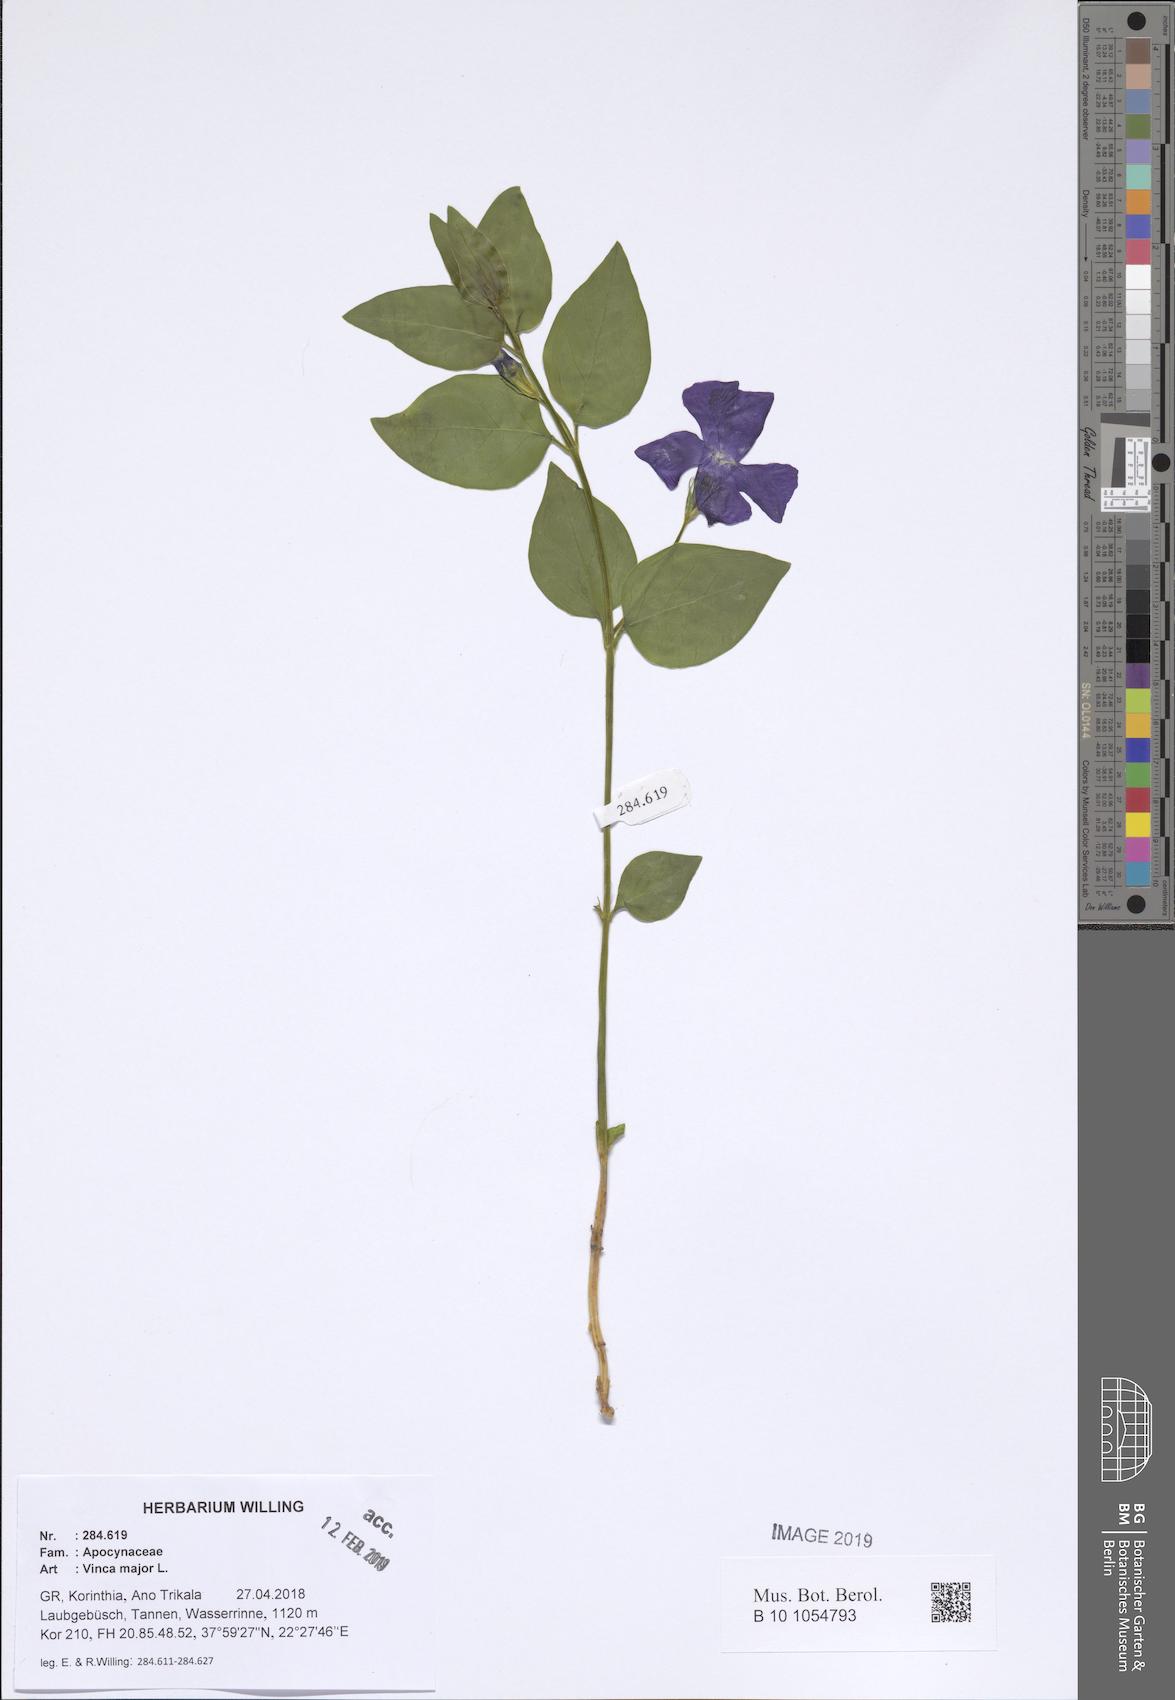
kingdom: Plantae
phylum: Tracheophyta
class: Magnoliopsida
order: Gentianales
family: Apocynaceae
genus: Vinca
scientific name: Vinca major
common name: Greater periwinkle
